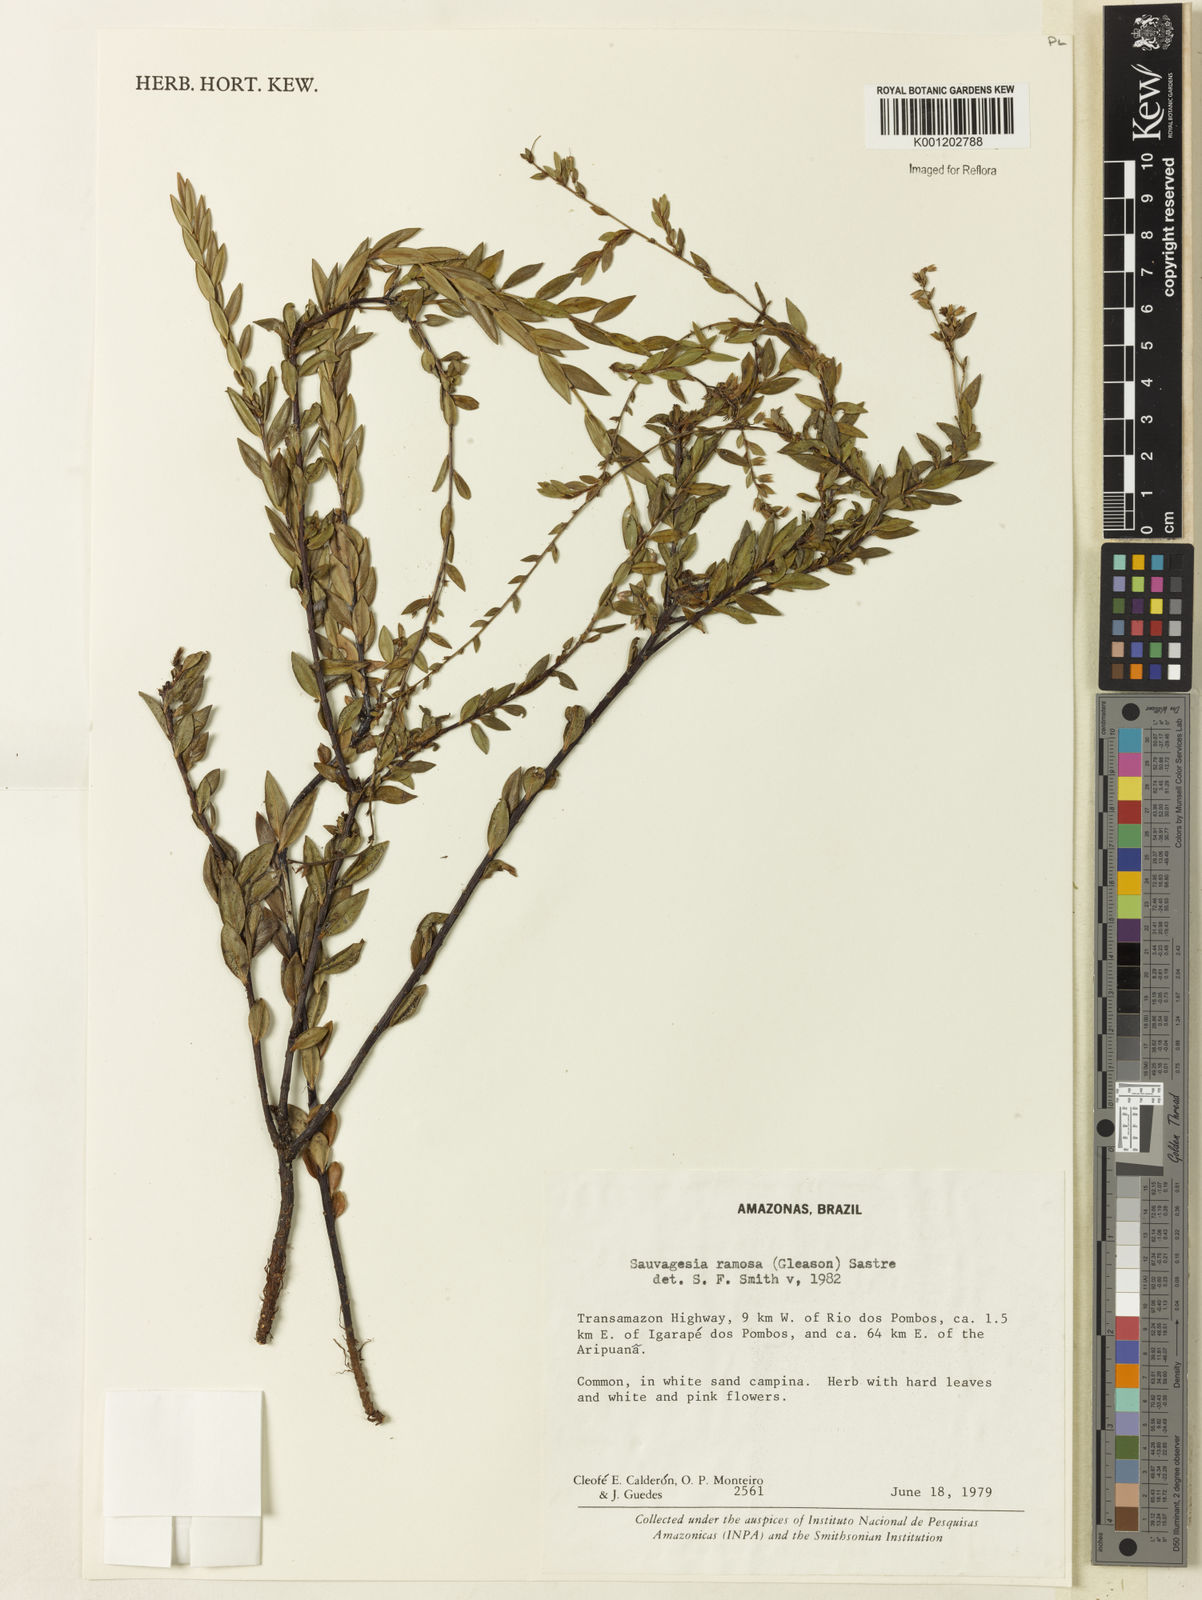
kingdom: Plantae
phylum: Tracheophyta
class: Magnoliopsida
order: Malpighiales
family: Ochnaceae
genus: Sauvagesia
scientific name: Sauvagesia ramosa
